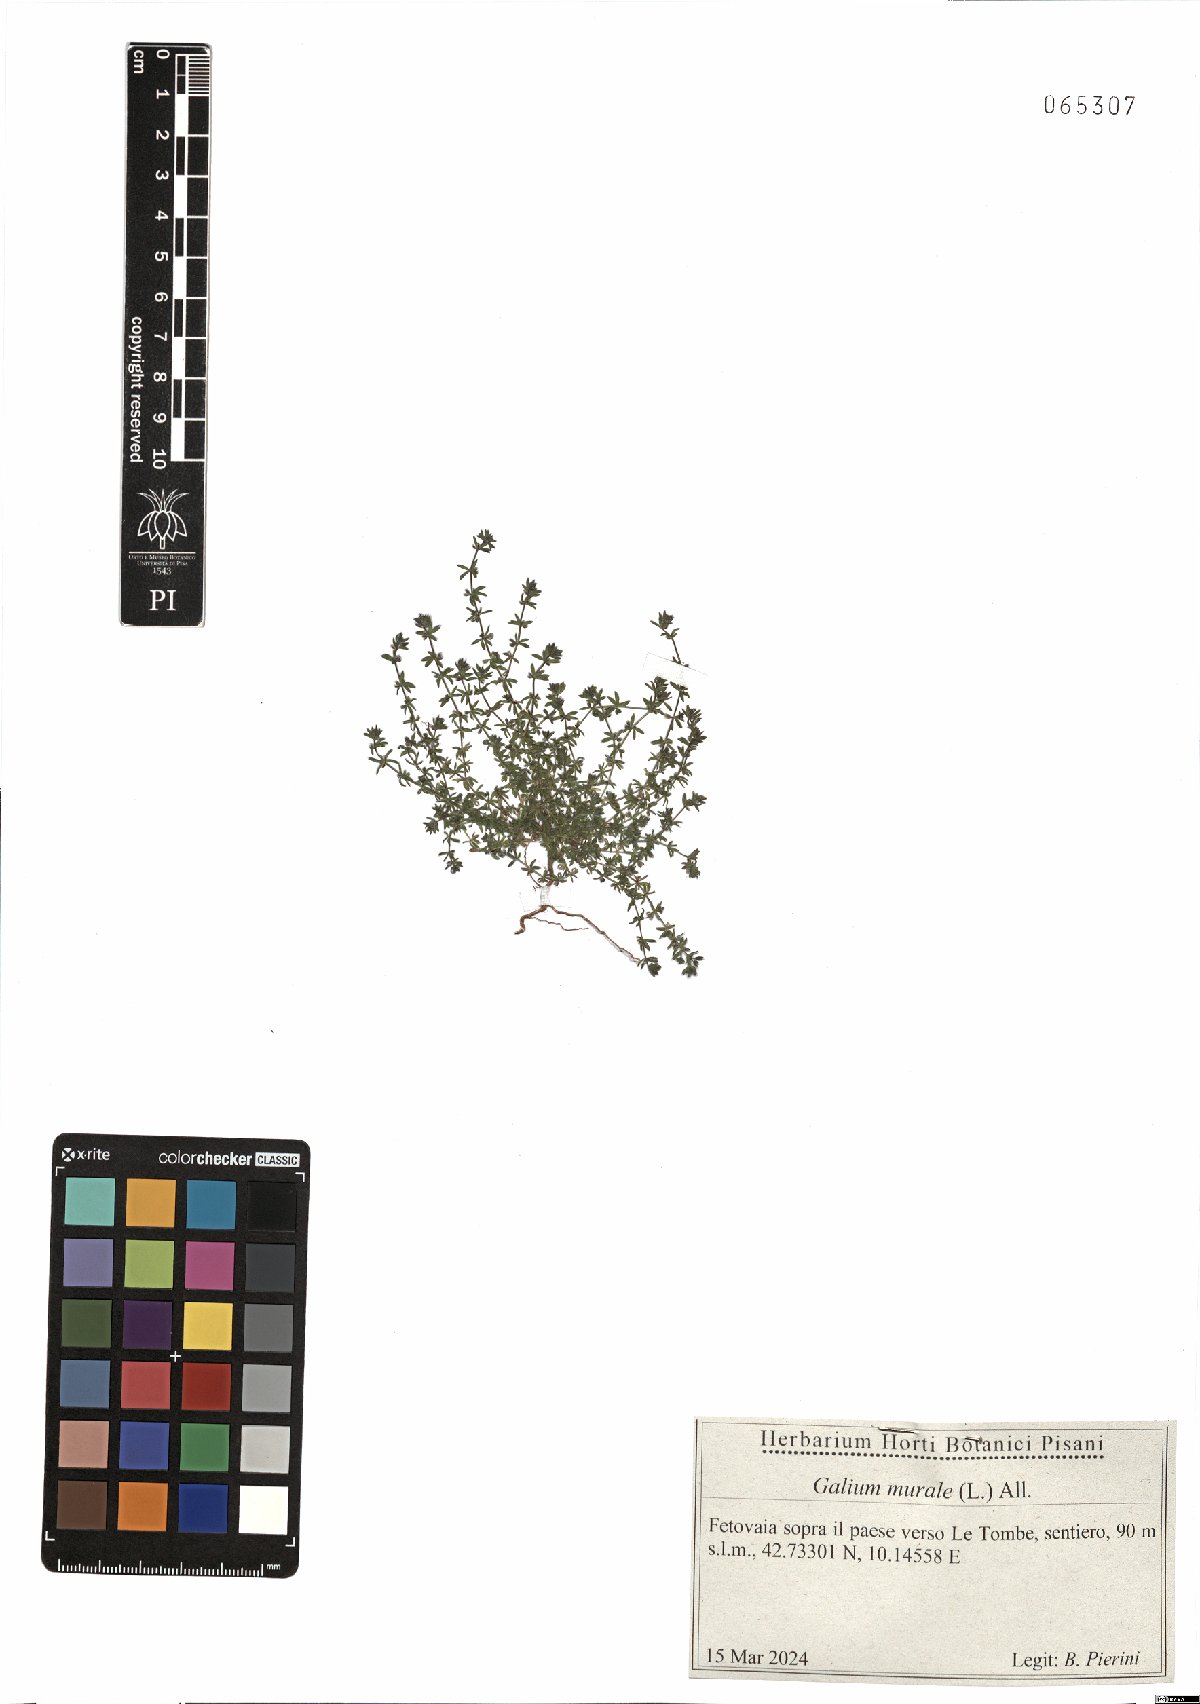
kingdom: Plantae
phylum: Tracheophyta
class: Magnoliopsida
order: Gentianales
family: Rubiaceae
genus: Galium
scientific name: Galium murale
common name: Yellow wall bedstraw
